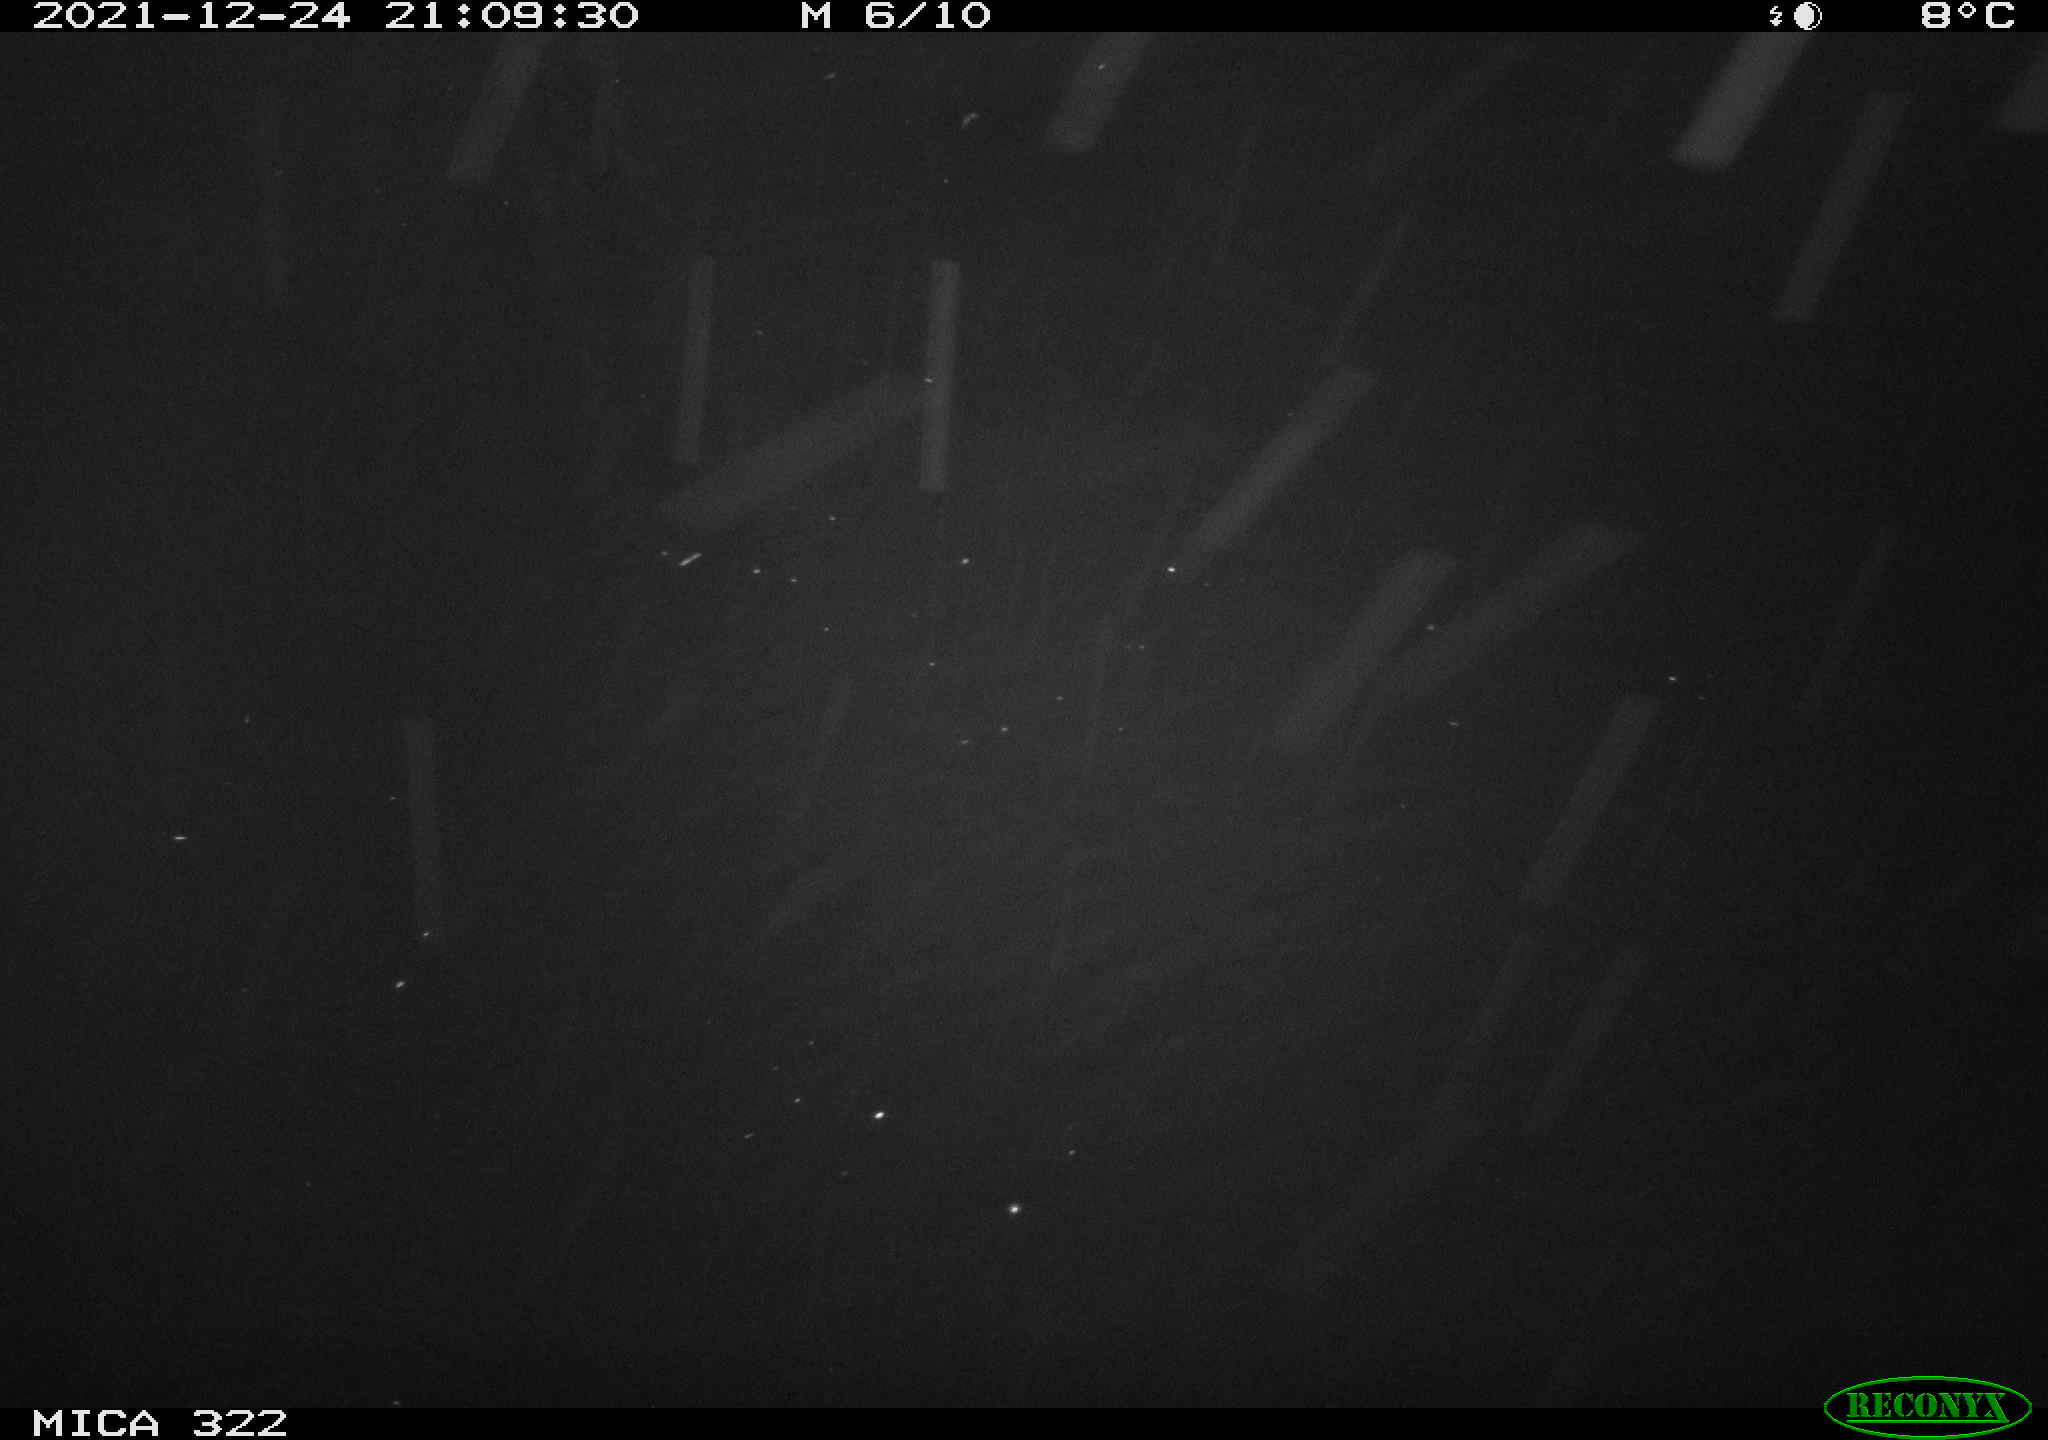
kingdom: Animalia
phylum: Chordata
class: Mammalia
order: Rodentia
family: Muridae
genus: Rattus
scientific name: Rattus norvegicus
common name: Brown rat
